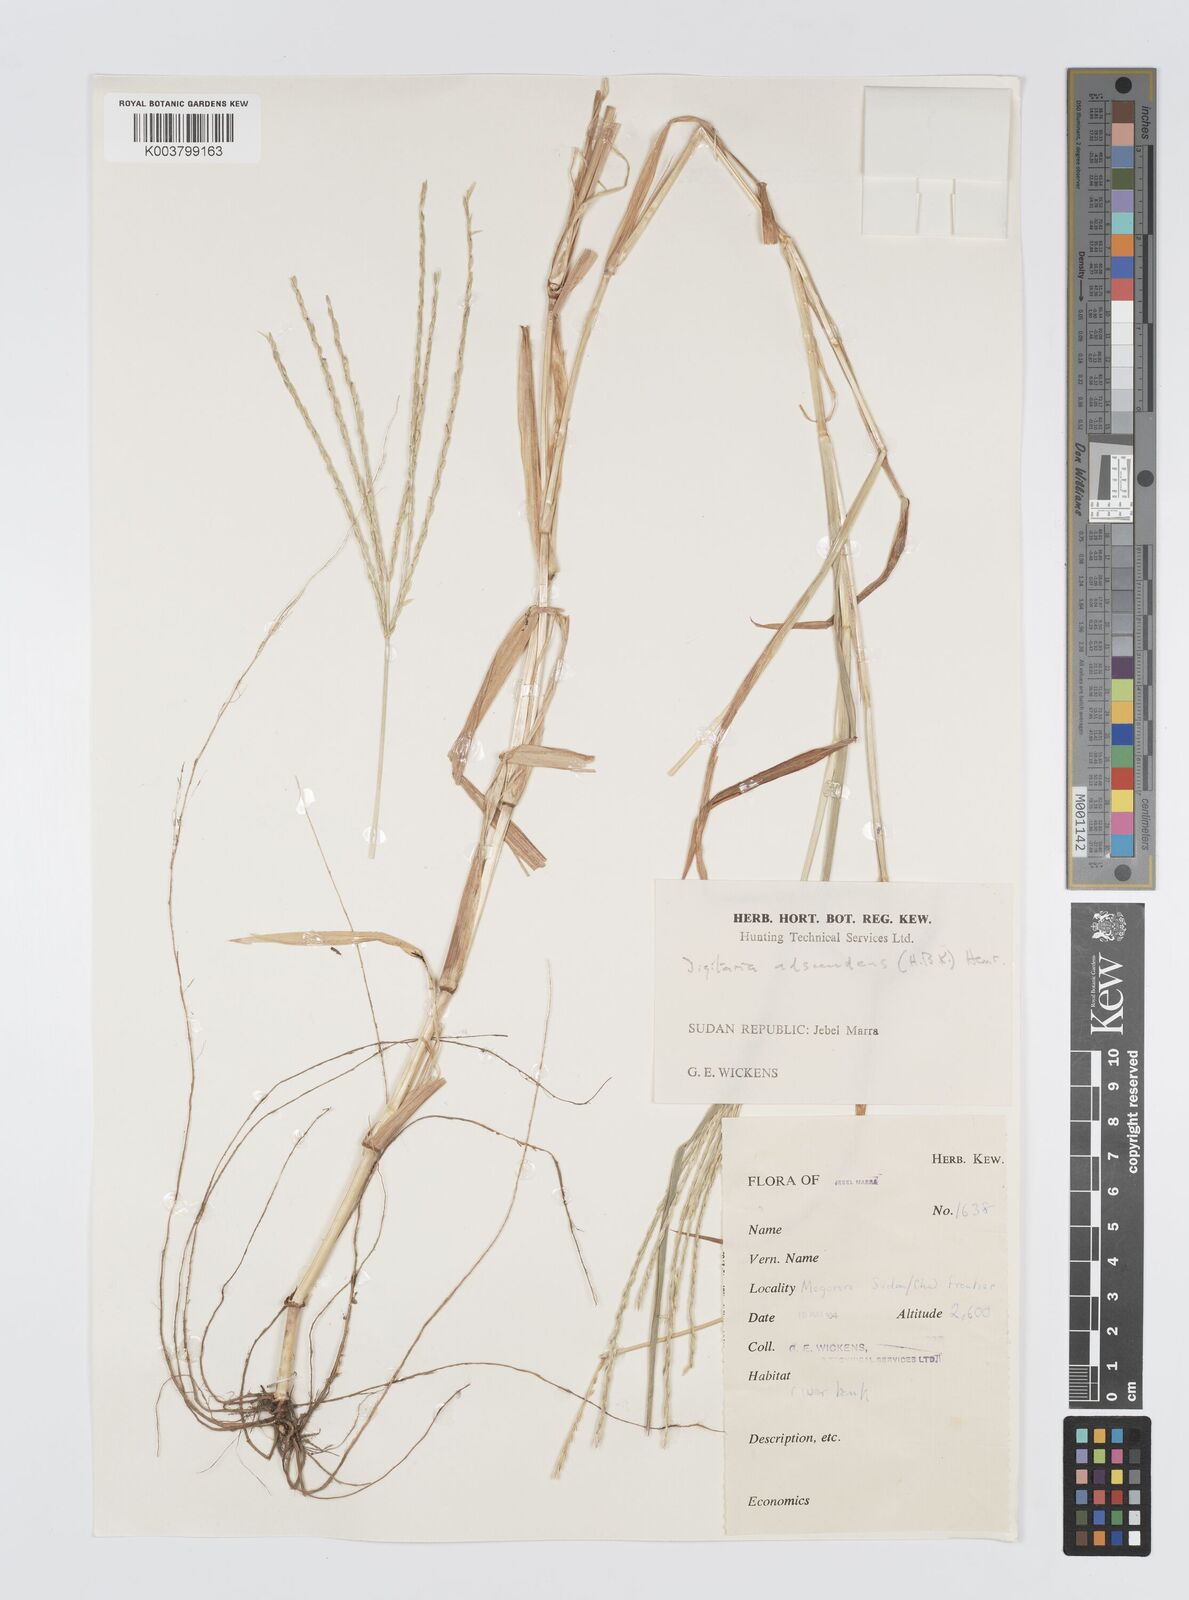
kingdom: Plantae
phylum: Tracheophyta
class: Liliopsida
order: Poales
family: Poaceae
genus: Digitaria
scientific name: Digitaria acuminatissima
